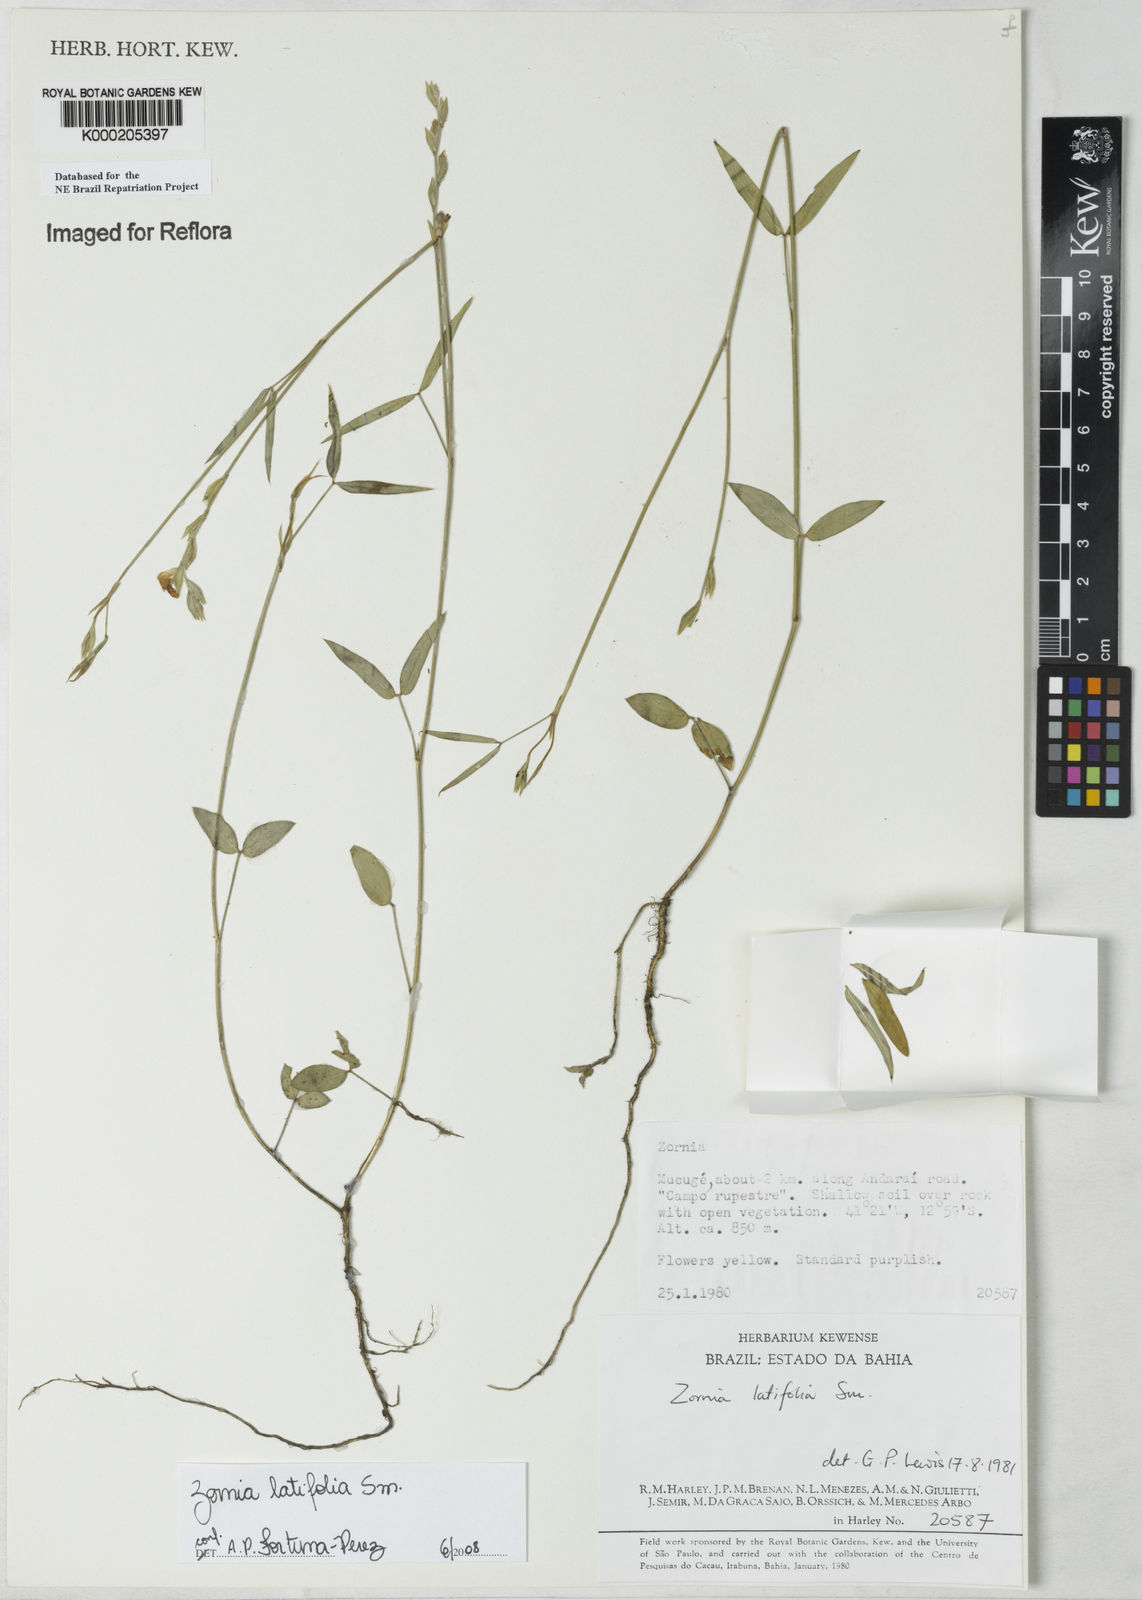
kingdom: Plantae
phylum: Tracheophyta
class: Magnoliopsida
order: Fabales
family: Fabaceae
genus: Zornia
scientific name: Zornia latifolia
